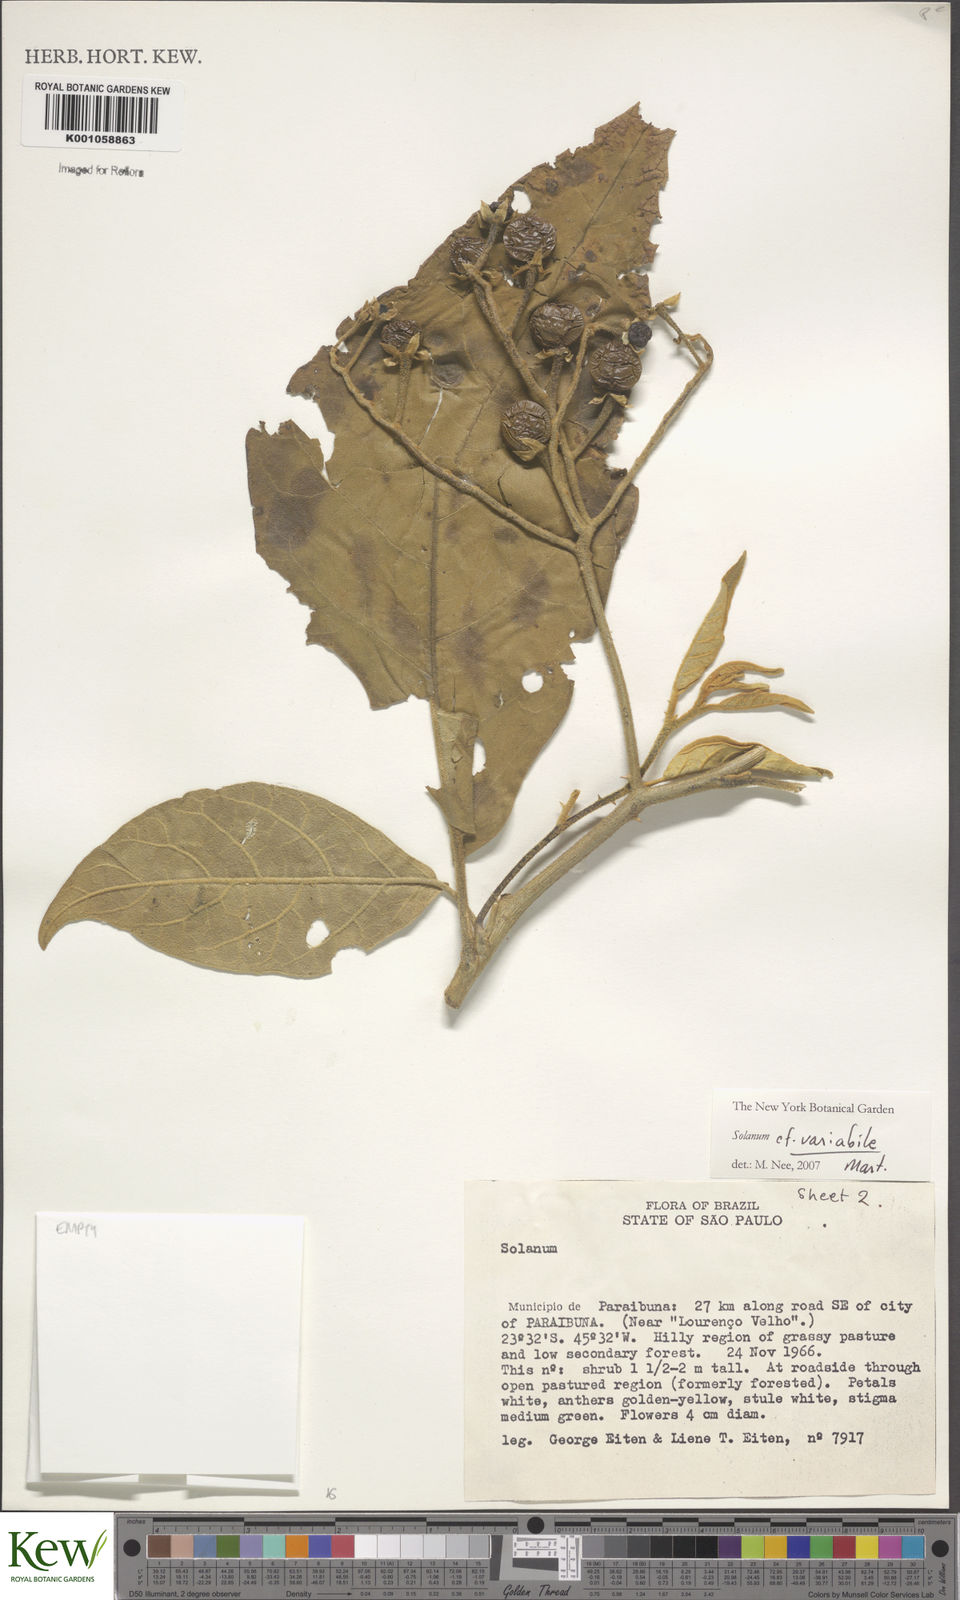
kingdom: Plantae
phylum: Tracheophyta
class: Magnoliopsida
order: Solanales
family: Solanaceae
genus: Solanum
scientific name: Solanum variabile
